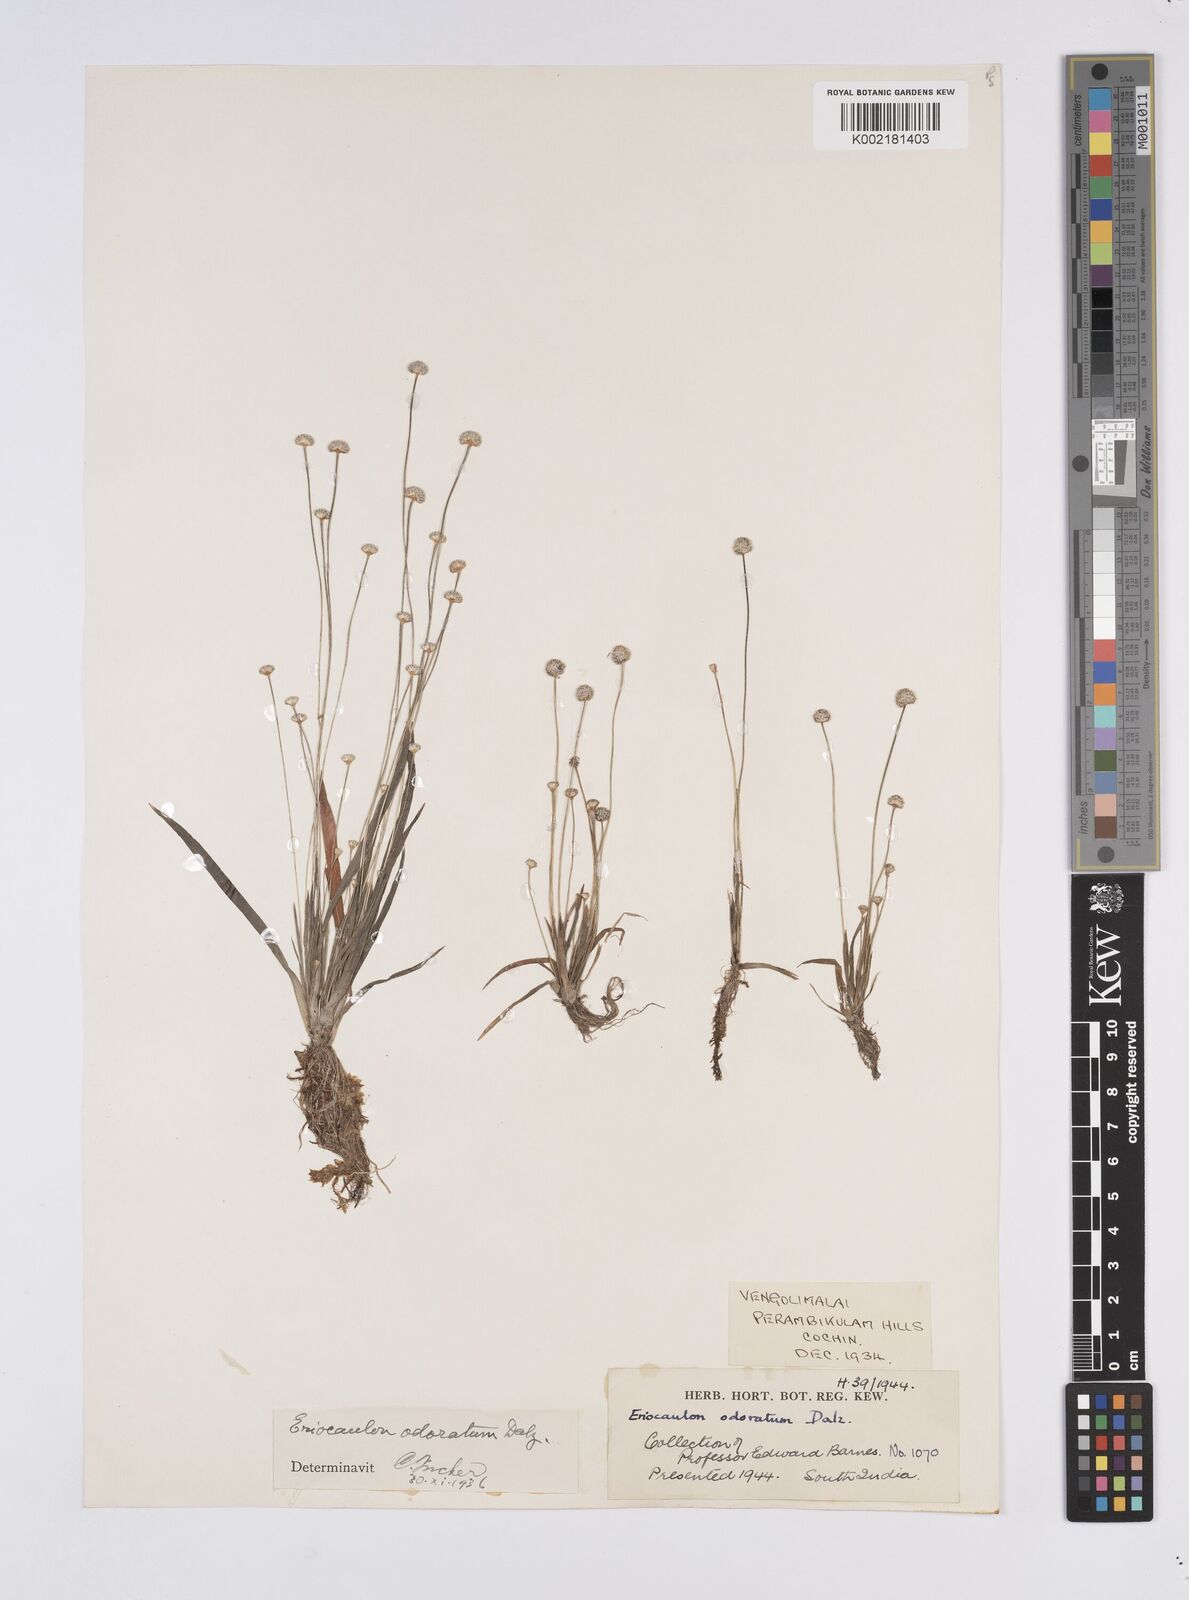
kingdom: Plantae
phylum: Tracheophyta
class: Liliopsida
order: Poales
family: Eriocaulaceae
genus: Eriocaulon
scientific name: Eriocaulon odoratum
